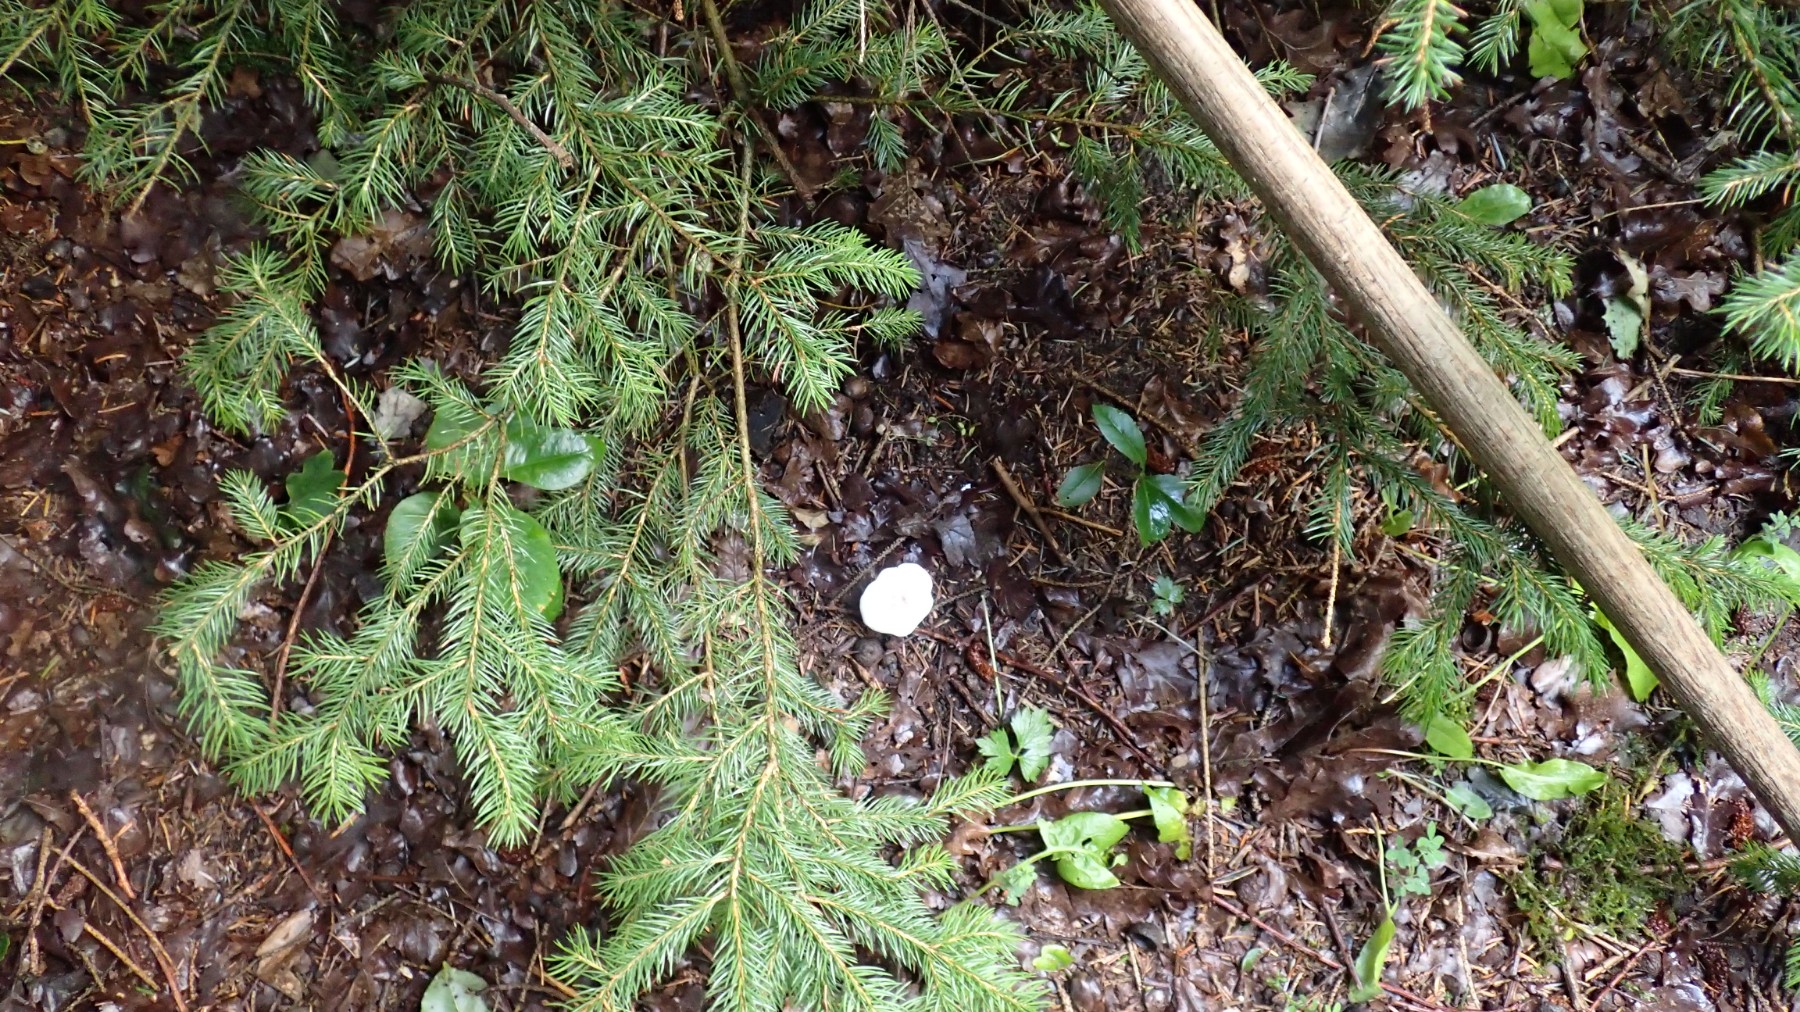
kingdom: Fungi
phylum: Basidiomycota
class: Agaricomycetes
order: Agaricales
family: Entolomataceae
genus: Clitopilus
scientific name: Clitopilus prunulus
